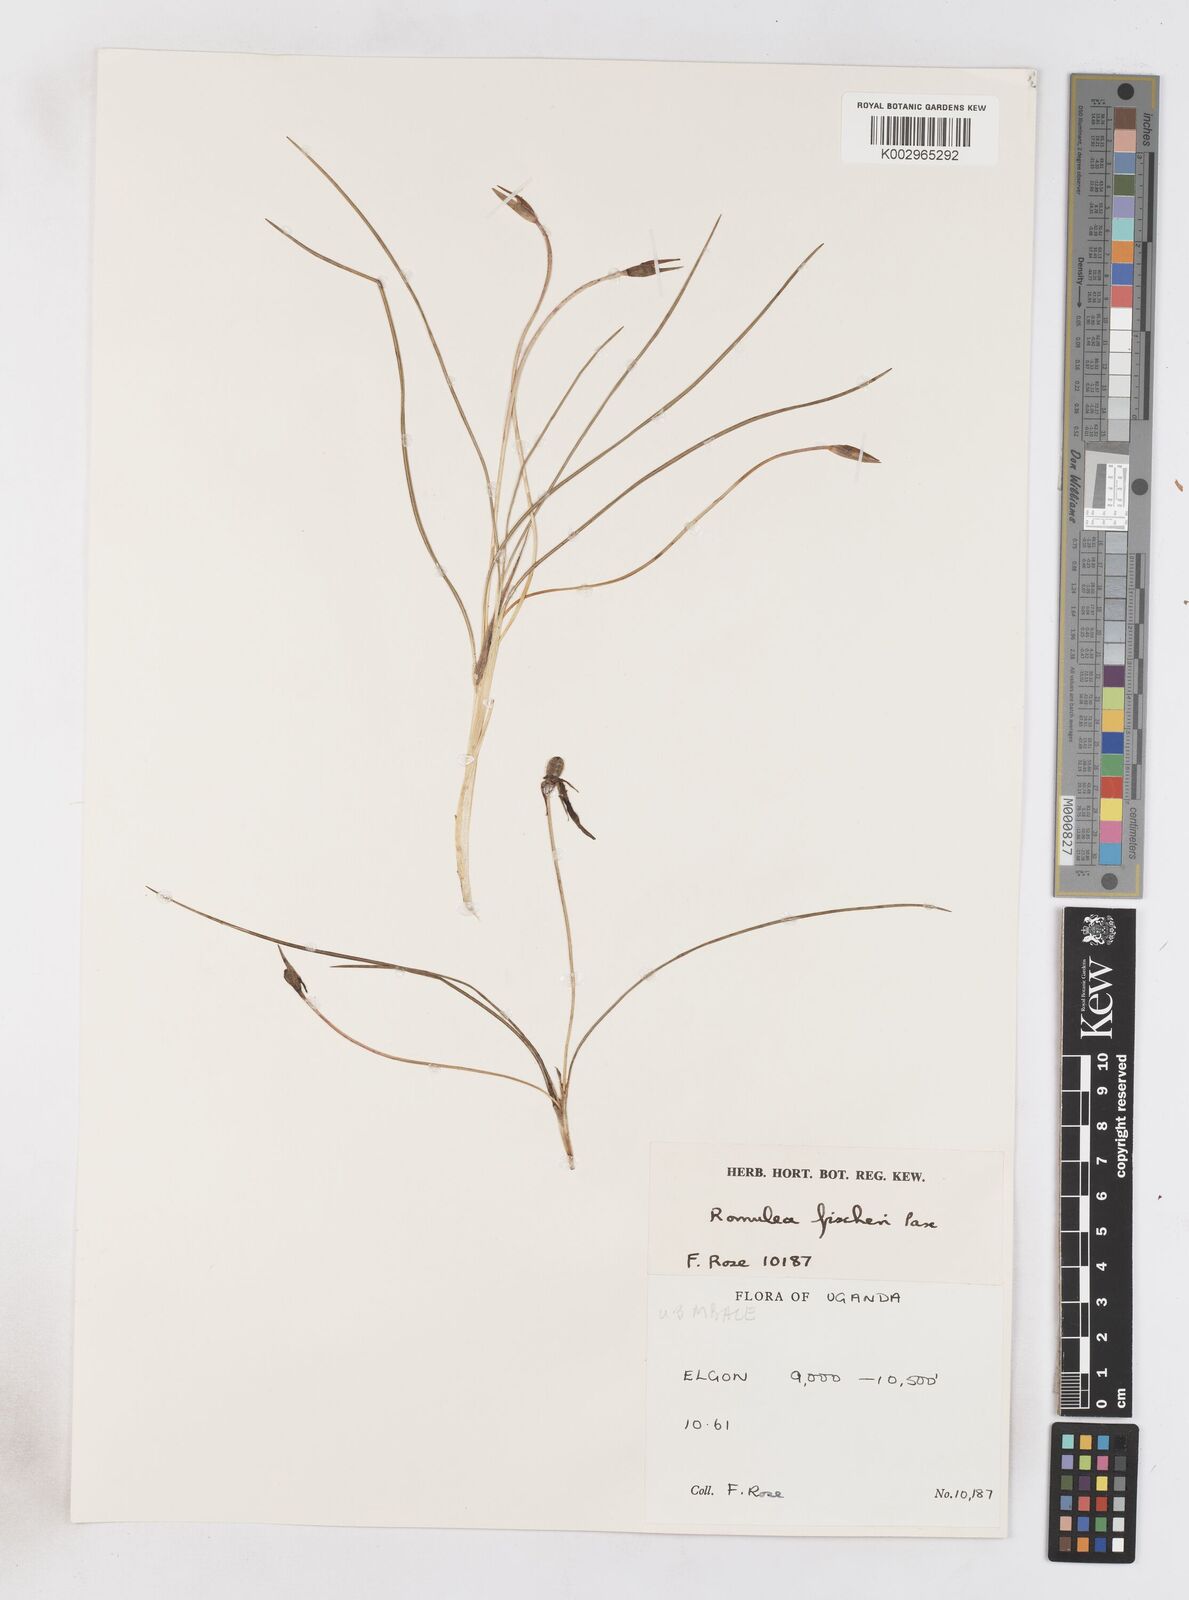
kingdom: Plantae
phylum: Tracheophyta
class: Liliopsida
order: Asparagales
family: Iridaceae
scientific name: Iridaceae
